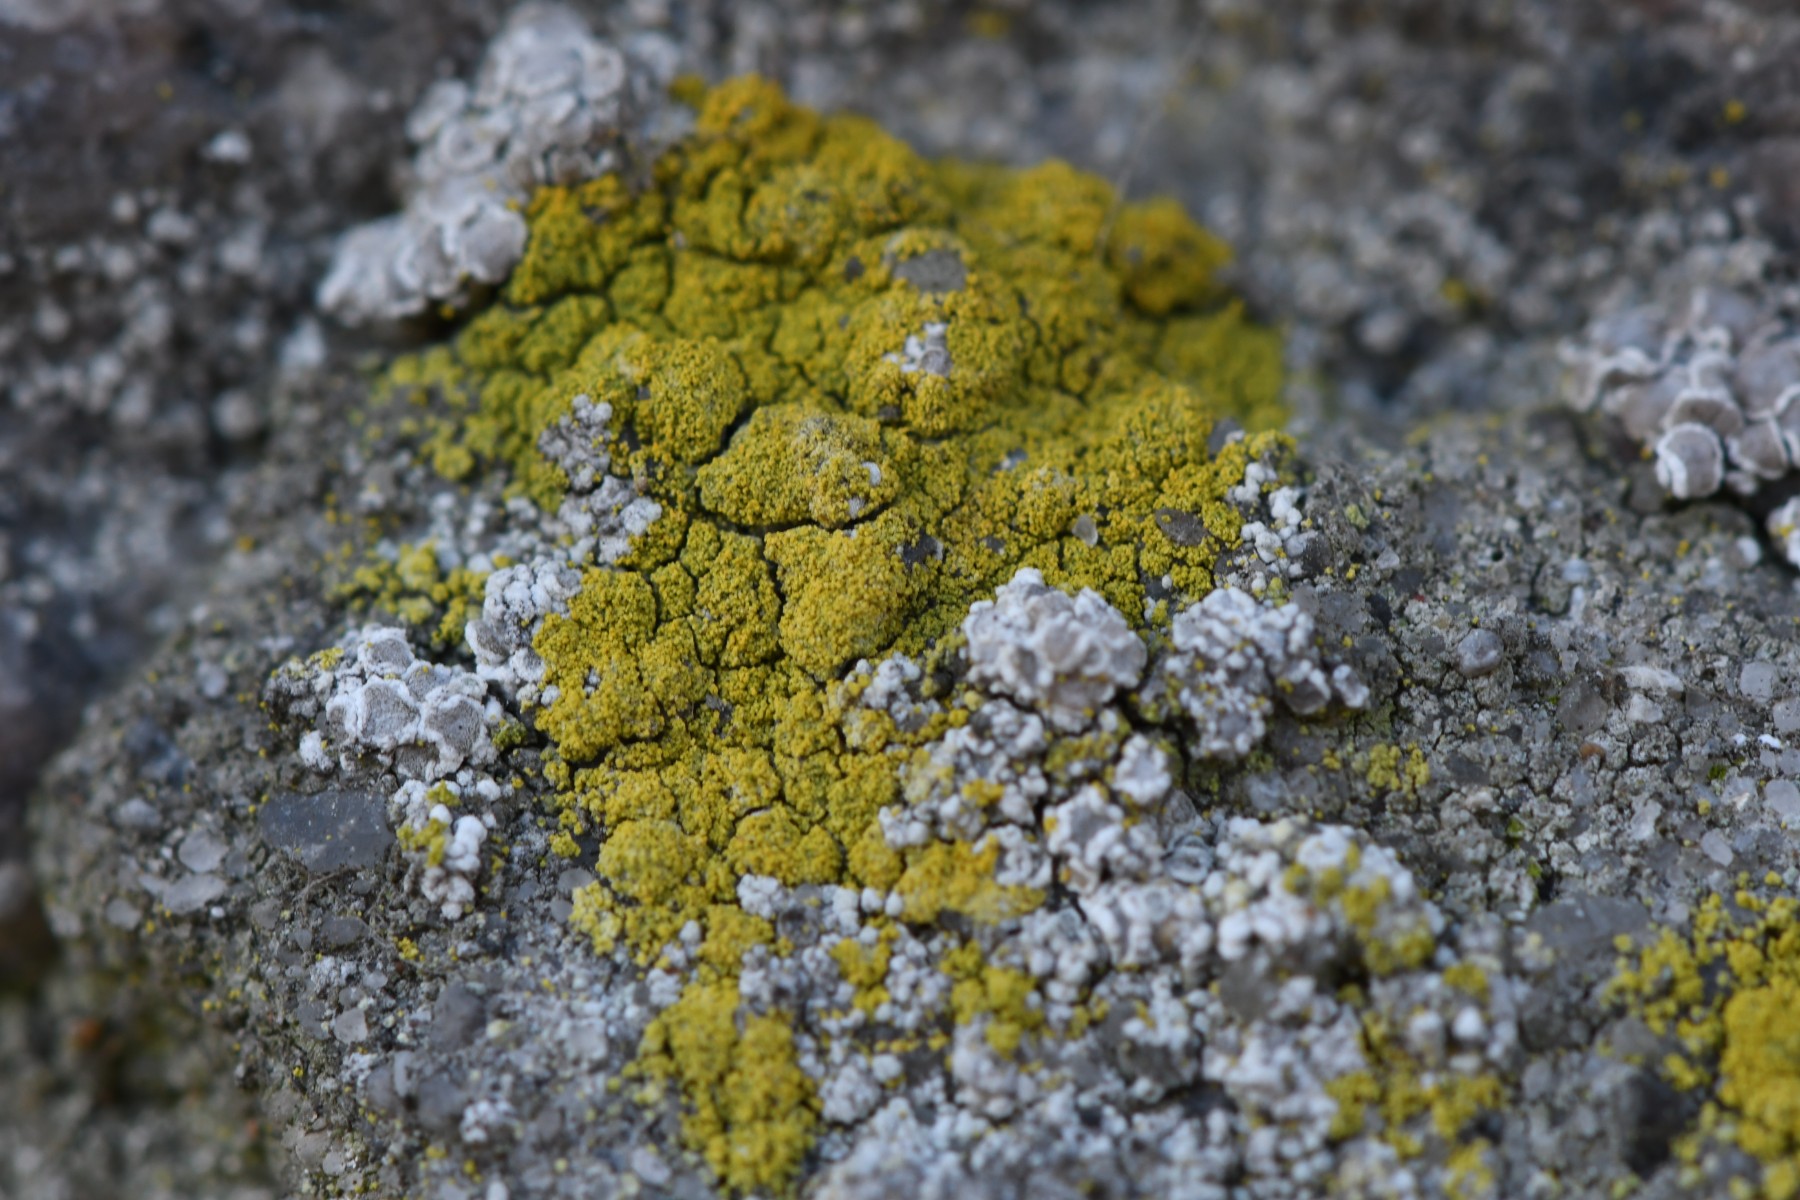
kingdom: Fungi
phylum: Ascomycota
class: Candelariomycetes
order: Candelariales
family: Candelariaceae
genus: Candelariella
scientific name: Candelariella vitellina
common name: almindelig æggeblommelav
